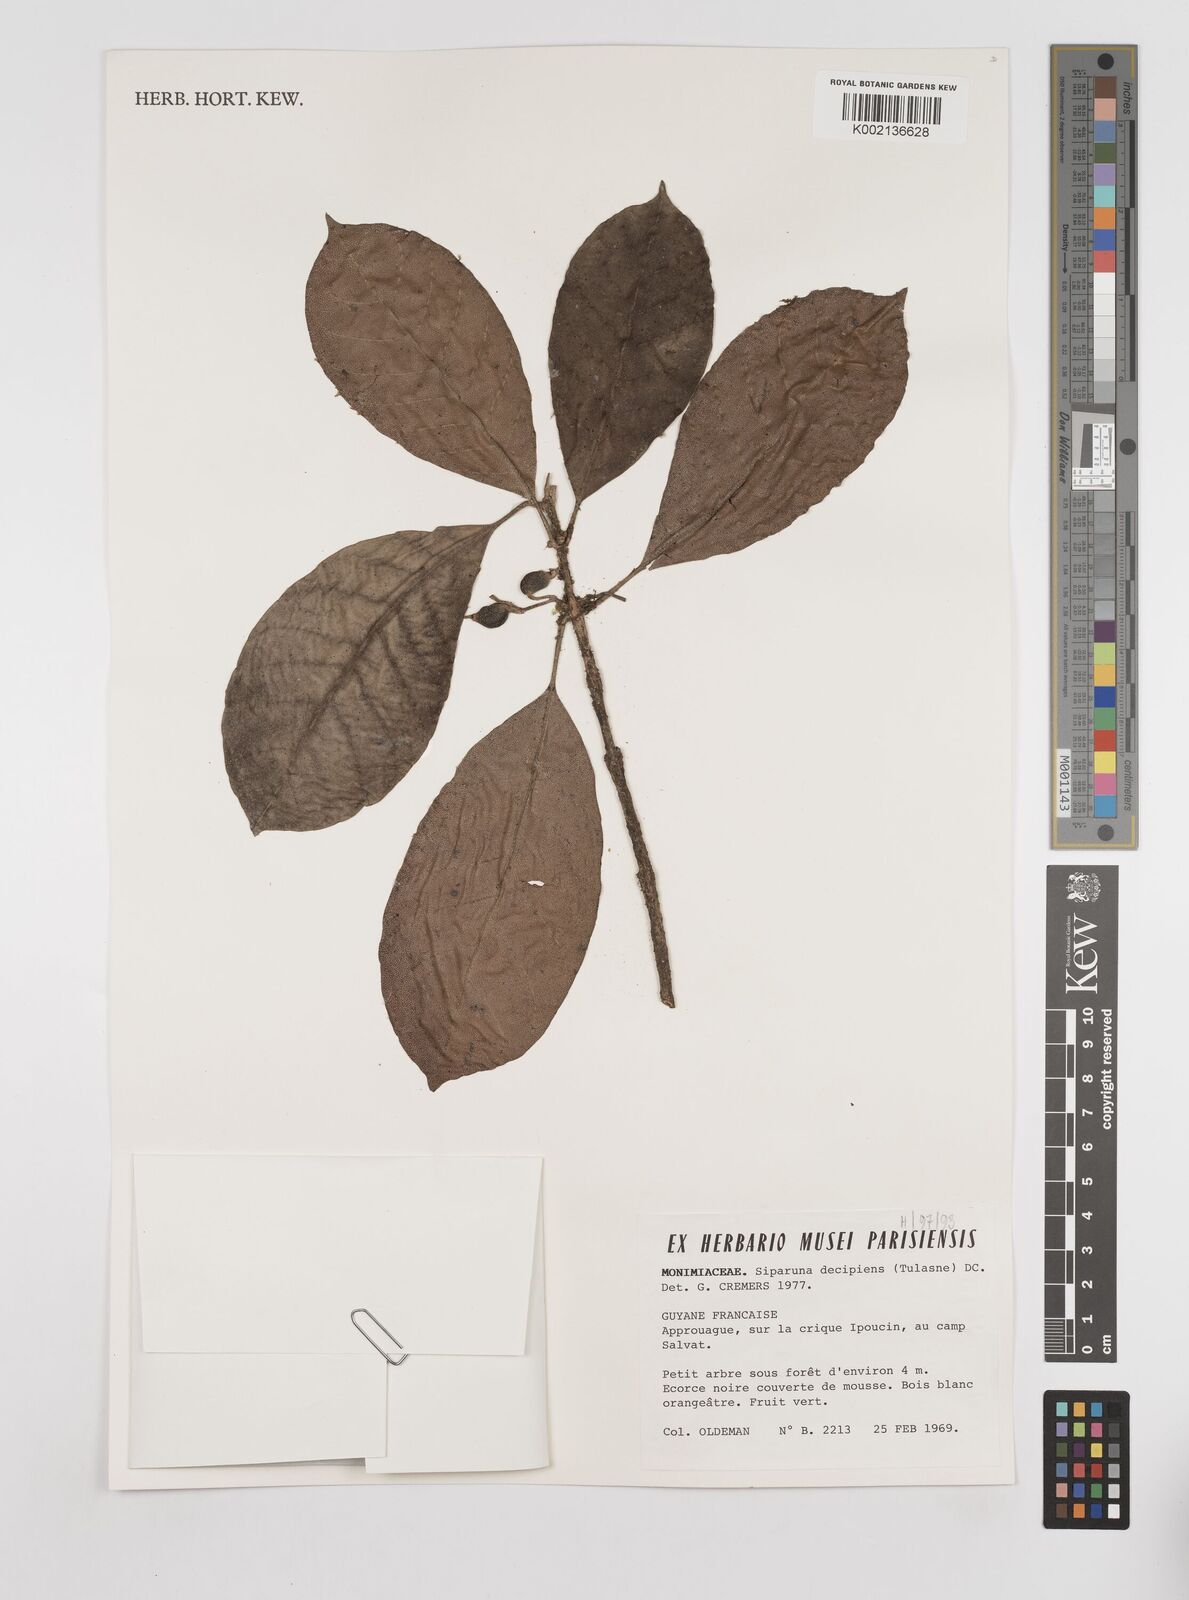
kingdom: Plantae
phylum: Tracheophyta
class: Magnoliopsida
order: Laurales
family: Siparunaceae
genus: Siparuna
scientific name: Siparuna decipiens
